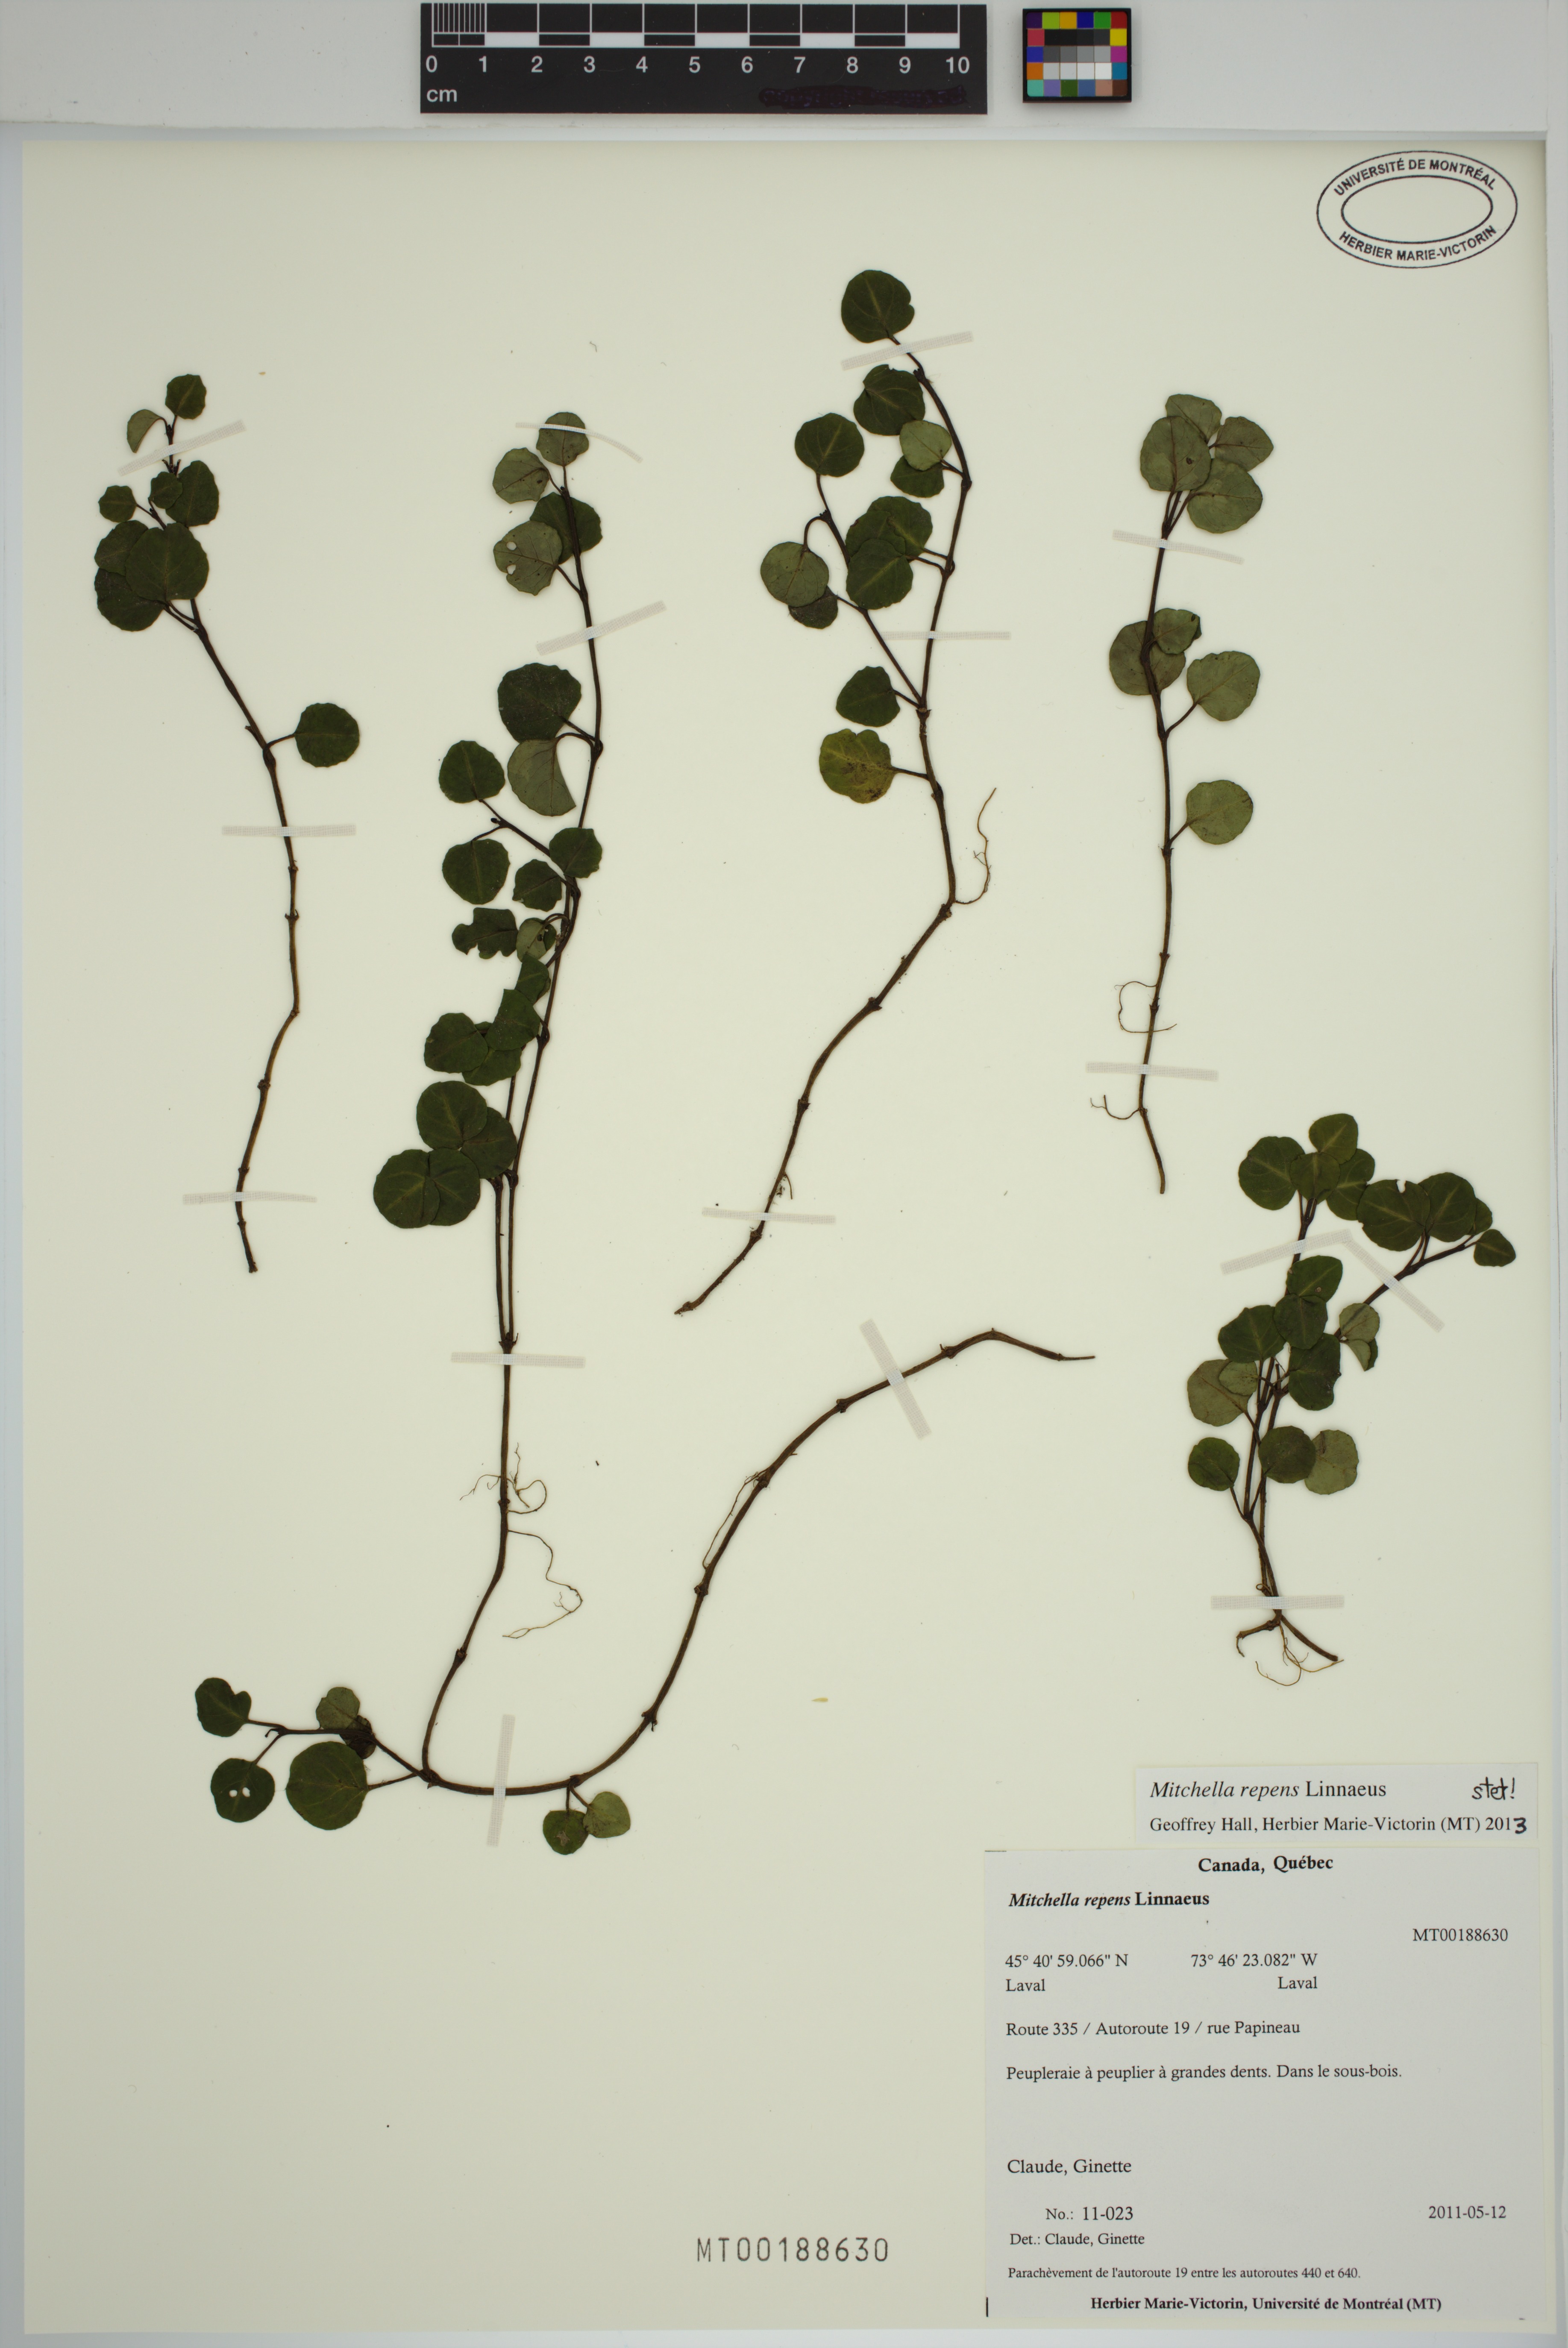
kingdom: Plantae
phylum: Tracheophyta
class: Magnoliopsida
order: Gentianales
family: Rubiaceae
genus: Mitchella
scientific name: Mitchella repens
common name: Partridge-berry
